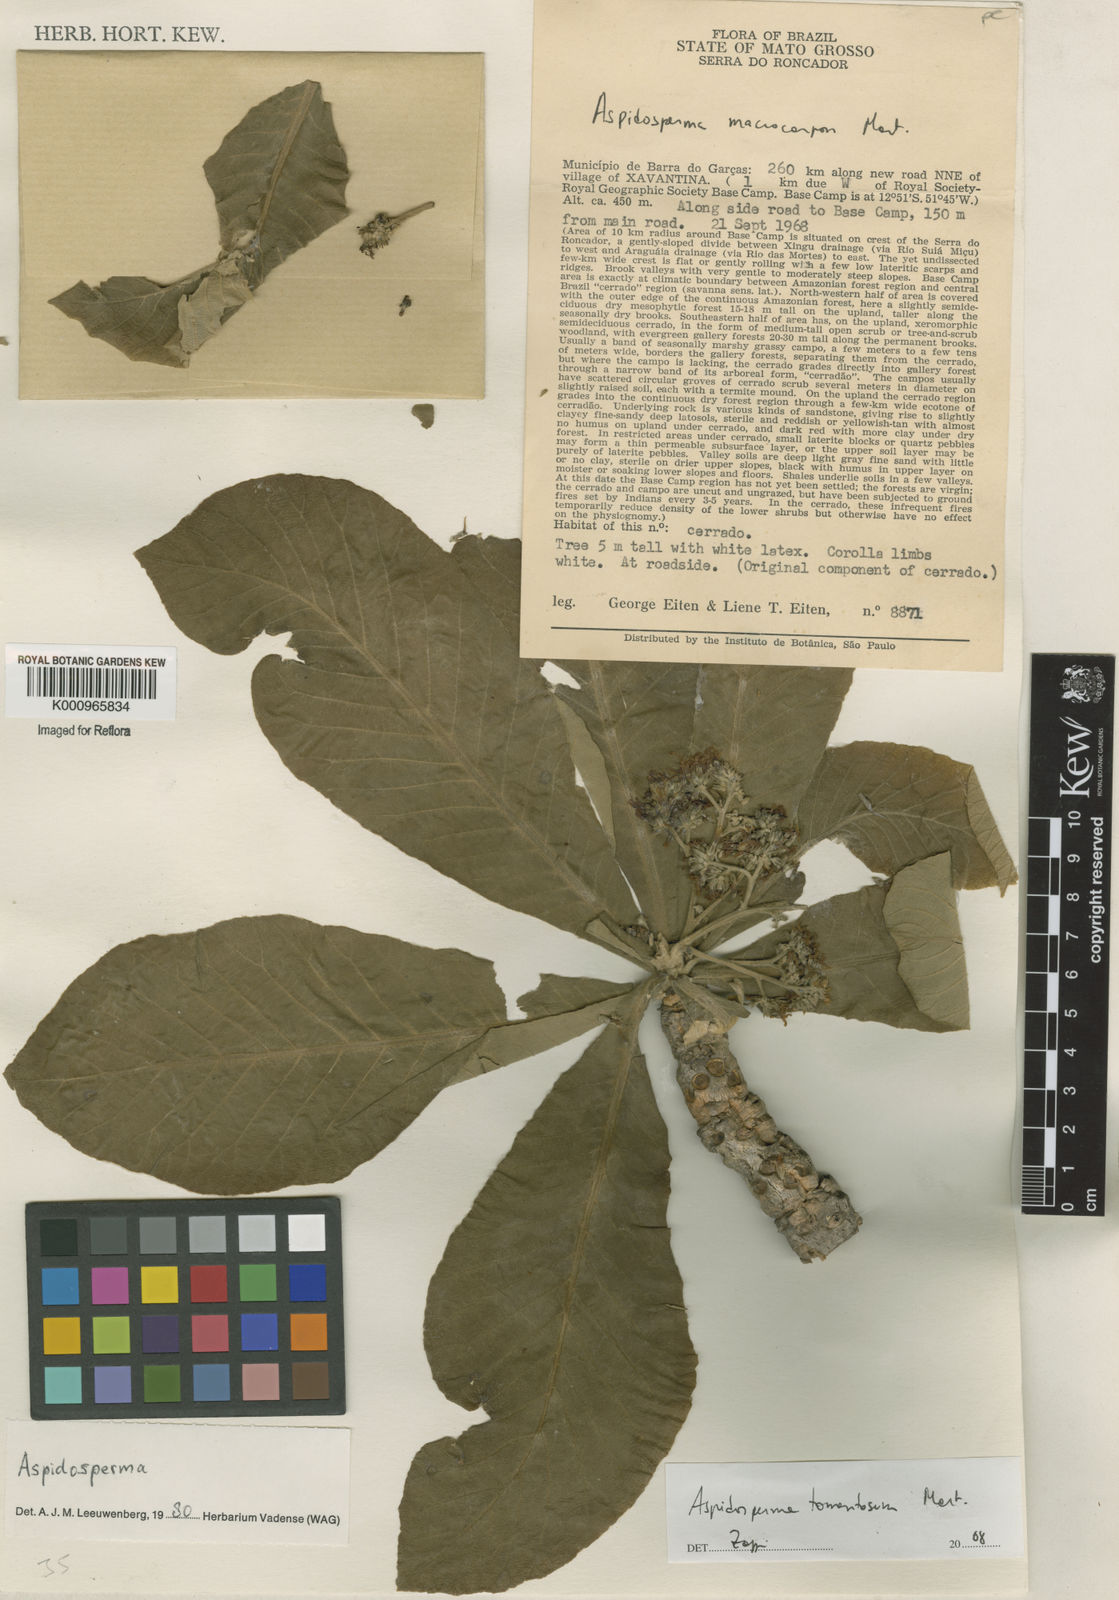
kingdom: Plantae
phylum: Tracheophyta
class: Magnoliopsida
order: Gentianales
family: Apocynaceae
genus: Aspidosperma
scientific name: Aspidosperma tomentosum
